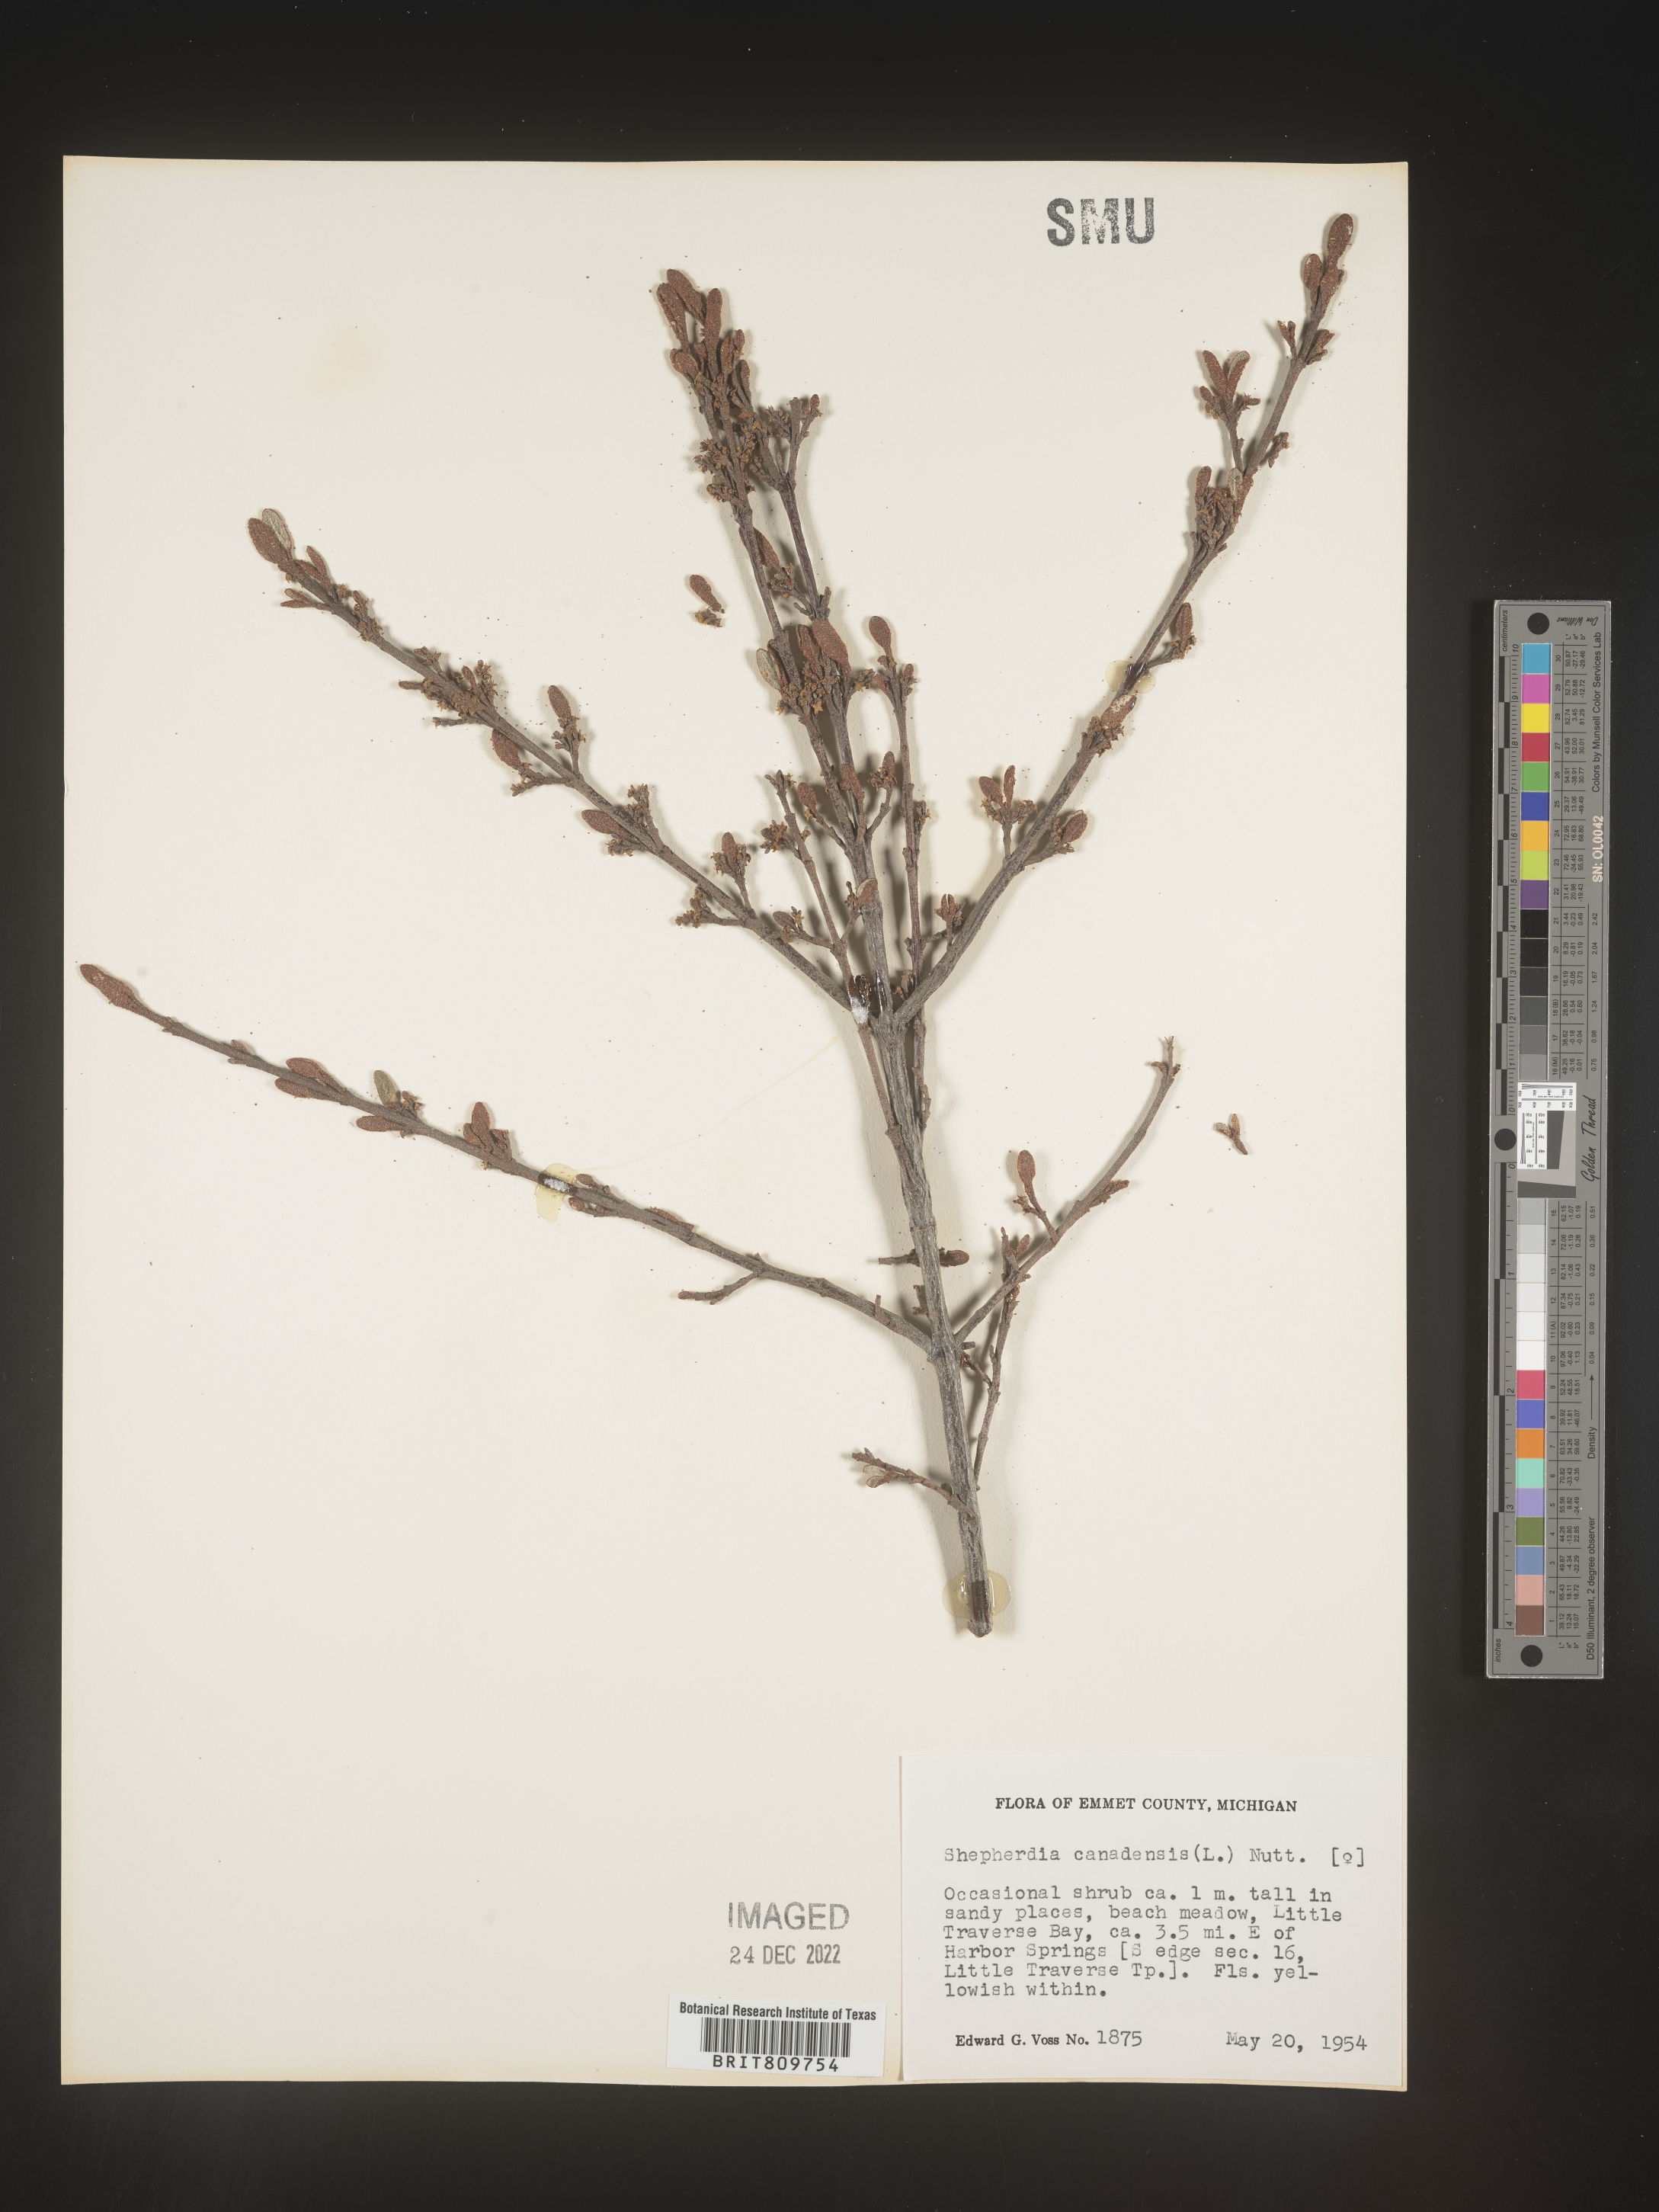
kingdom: Plantae
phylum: Tracheophyta
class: Magnoliopsida
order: Rosales
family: Elaeagnaceae
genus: Shepherdia
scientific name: Shepherdia canadensis
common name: Soapberry
